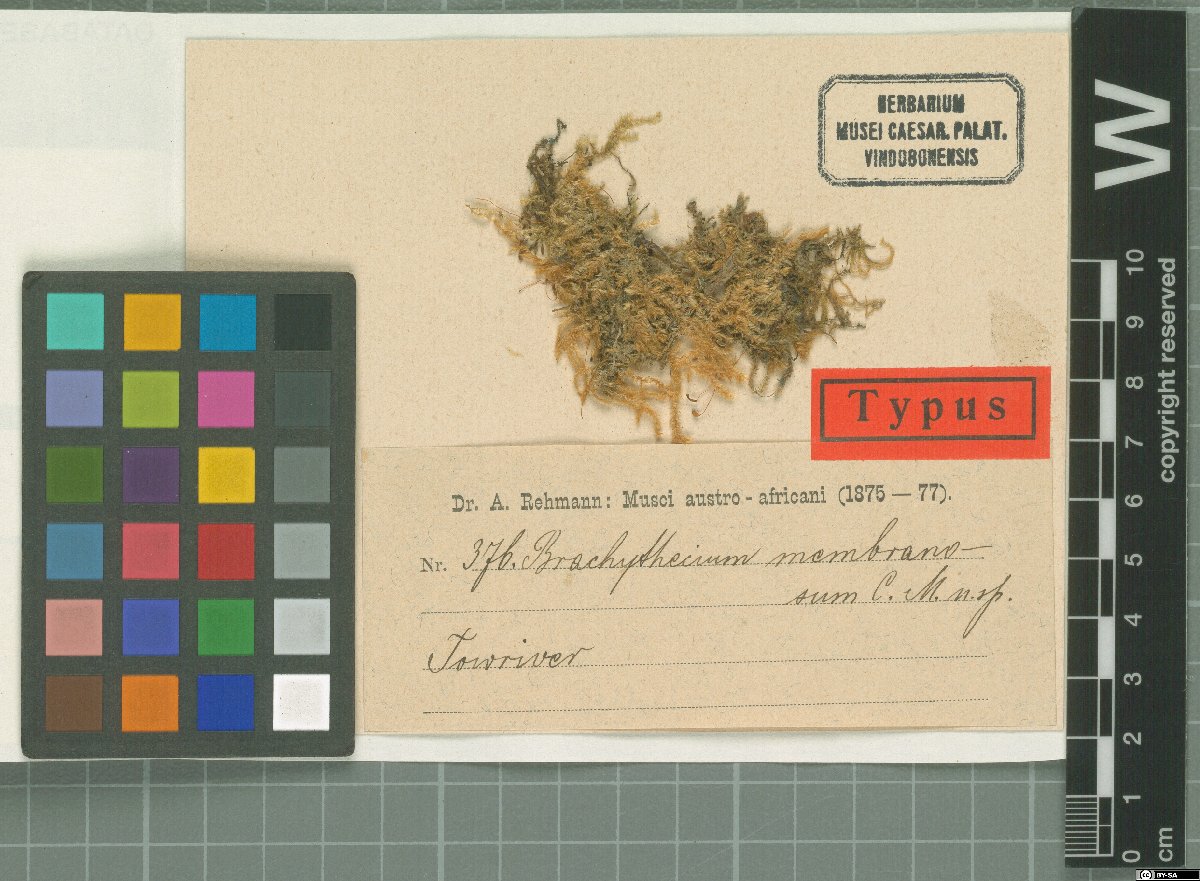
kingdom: Plantae
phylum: Bryophyta
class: Bryopsida
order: Hypnales
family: Brachytheciaceae
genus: Rhynchostegium
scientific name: Rhynchostegium brachypterum
